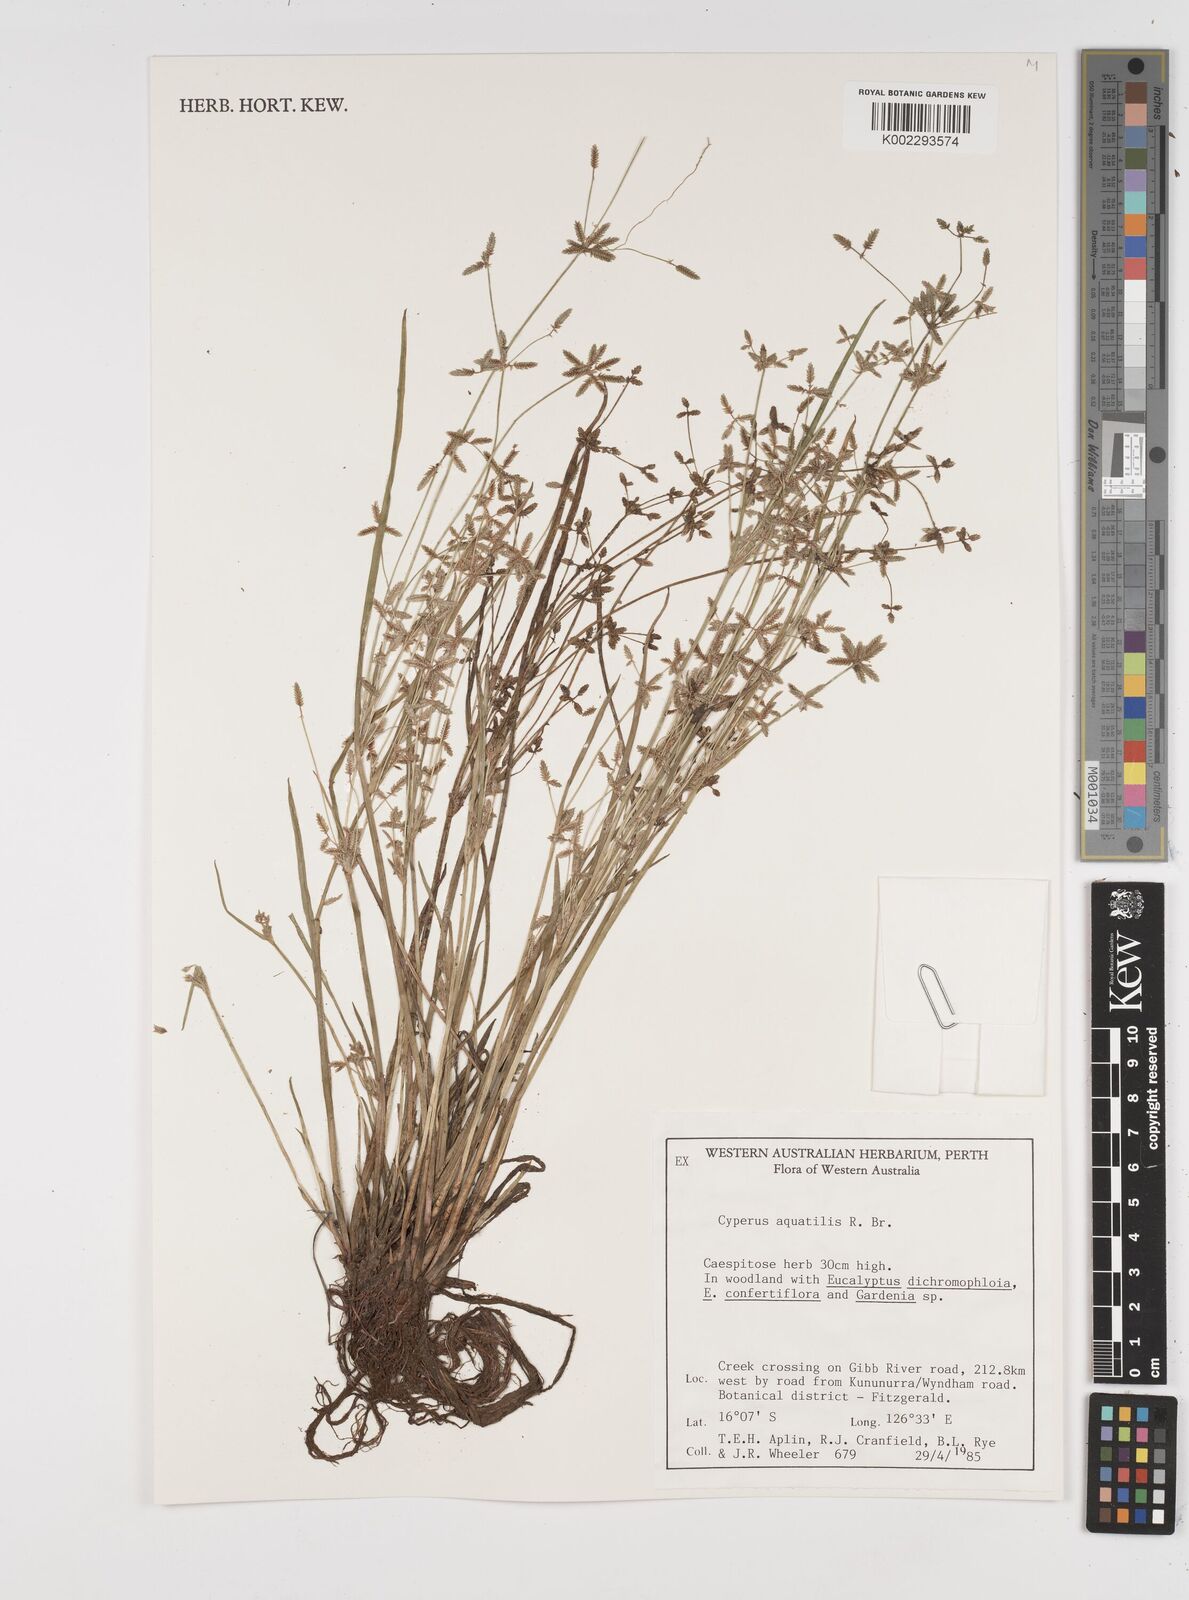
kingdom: Plantae
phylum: Tracheophyta
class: Liliopsida
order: Poales
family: Cyperaceae
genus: Cyperus
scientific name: Cyperus aquatilis
